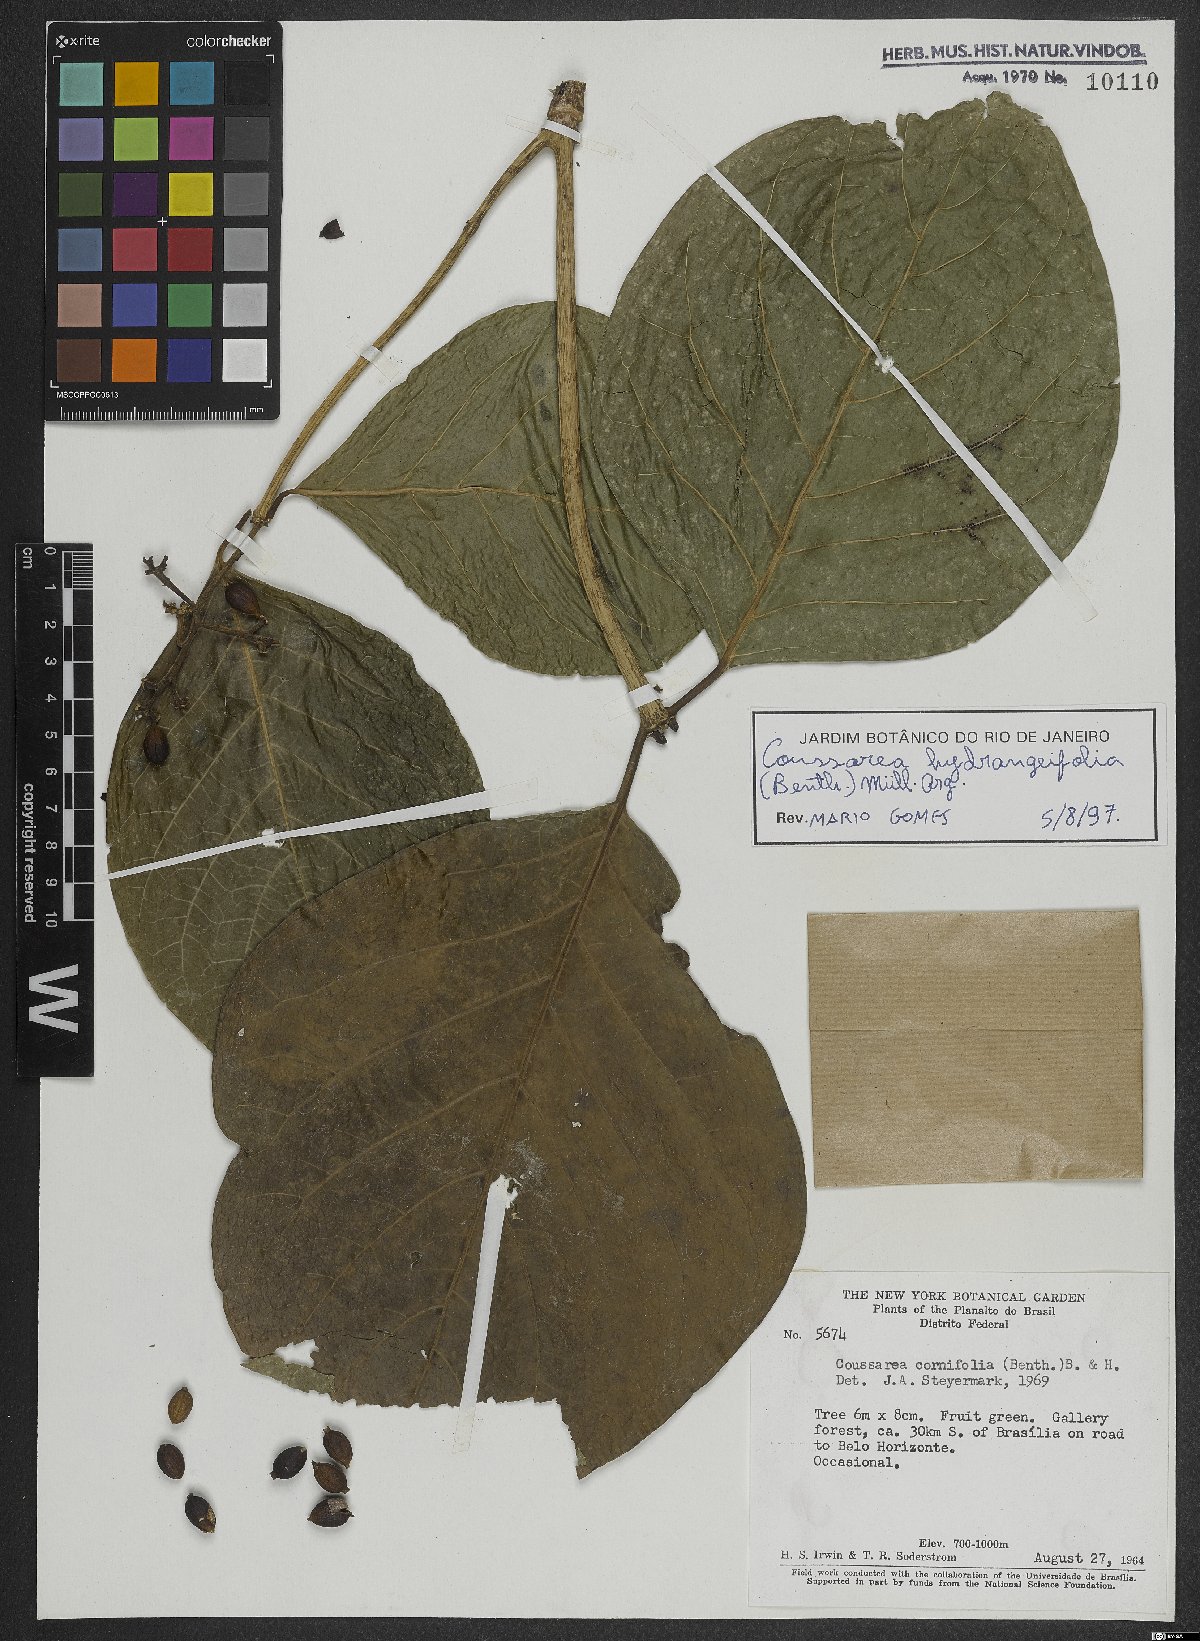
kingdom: Plantae
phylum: Tracheophyta
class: Magnoliopsida
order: Gentianales
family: Rubiaceae
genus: Coussarea
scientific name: Coussarea hydrangeifolia
